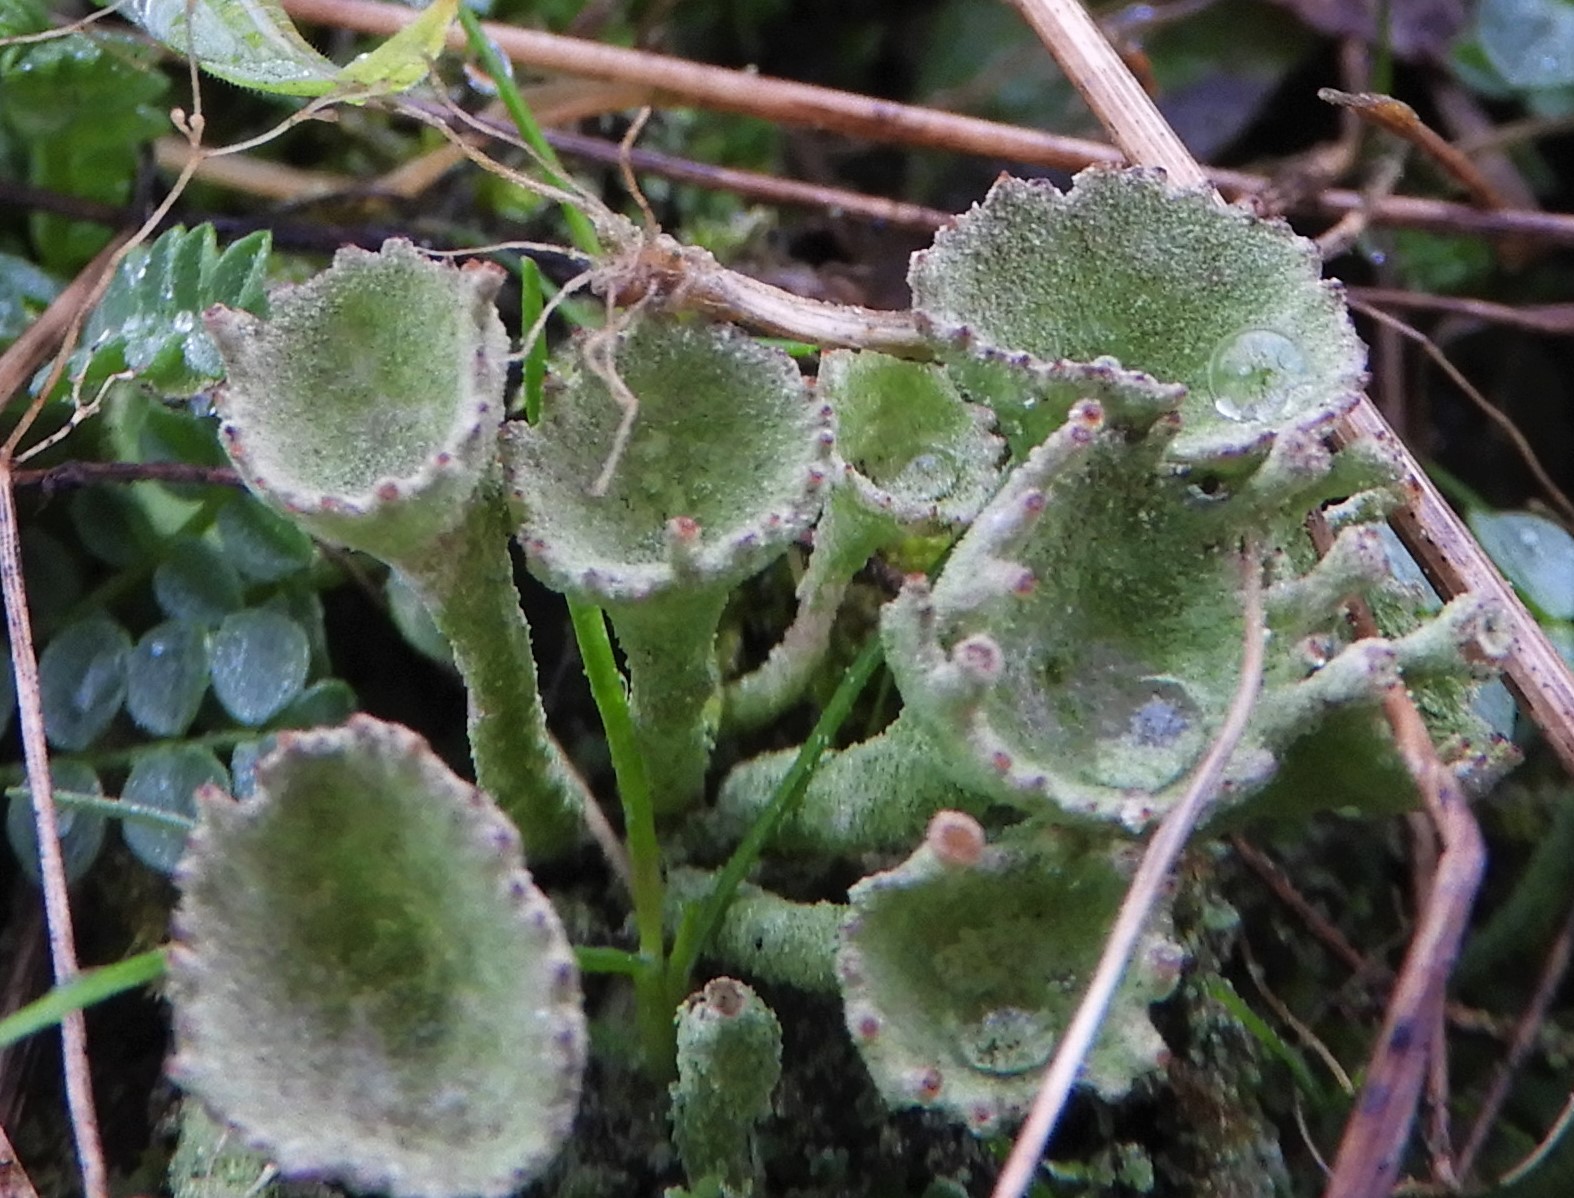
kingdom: Fungi
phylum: Ascomycota
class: Lecanoromycetes
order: Lecanorales
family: Cladoniaceae
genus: Cladonia
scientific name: Cladonia
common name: brungrøn bægerlav
